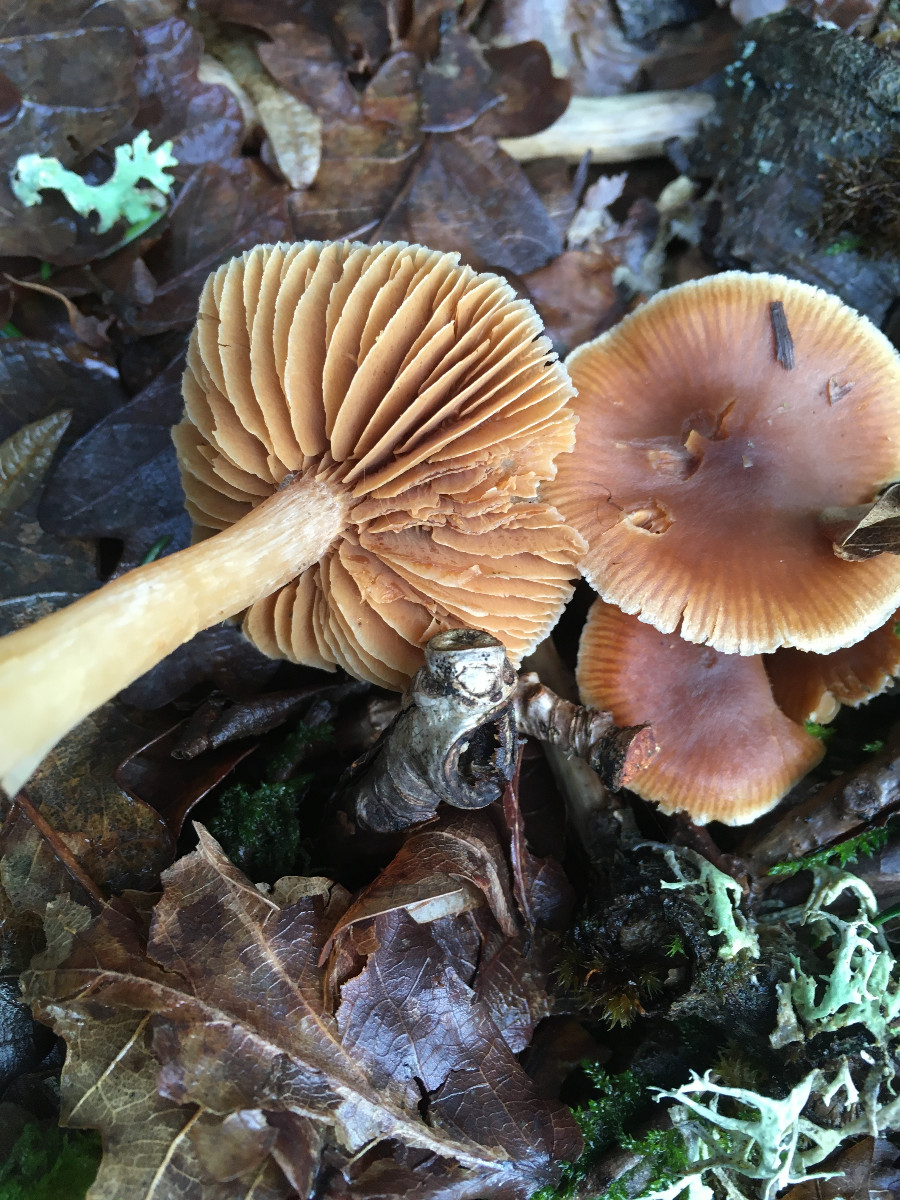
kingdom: Fungi
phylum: Basidiomycota
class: Agaricomycetes
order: Agaricales
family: Cortinariaceae
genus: Cortinarius
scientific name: Cortinarius
